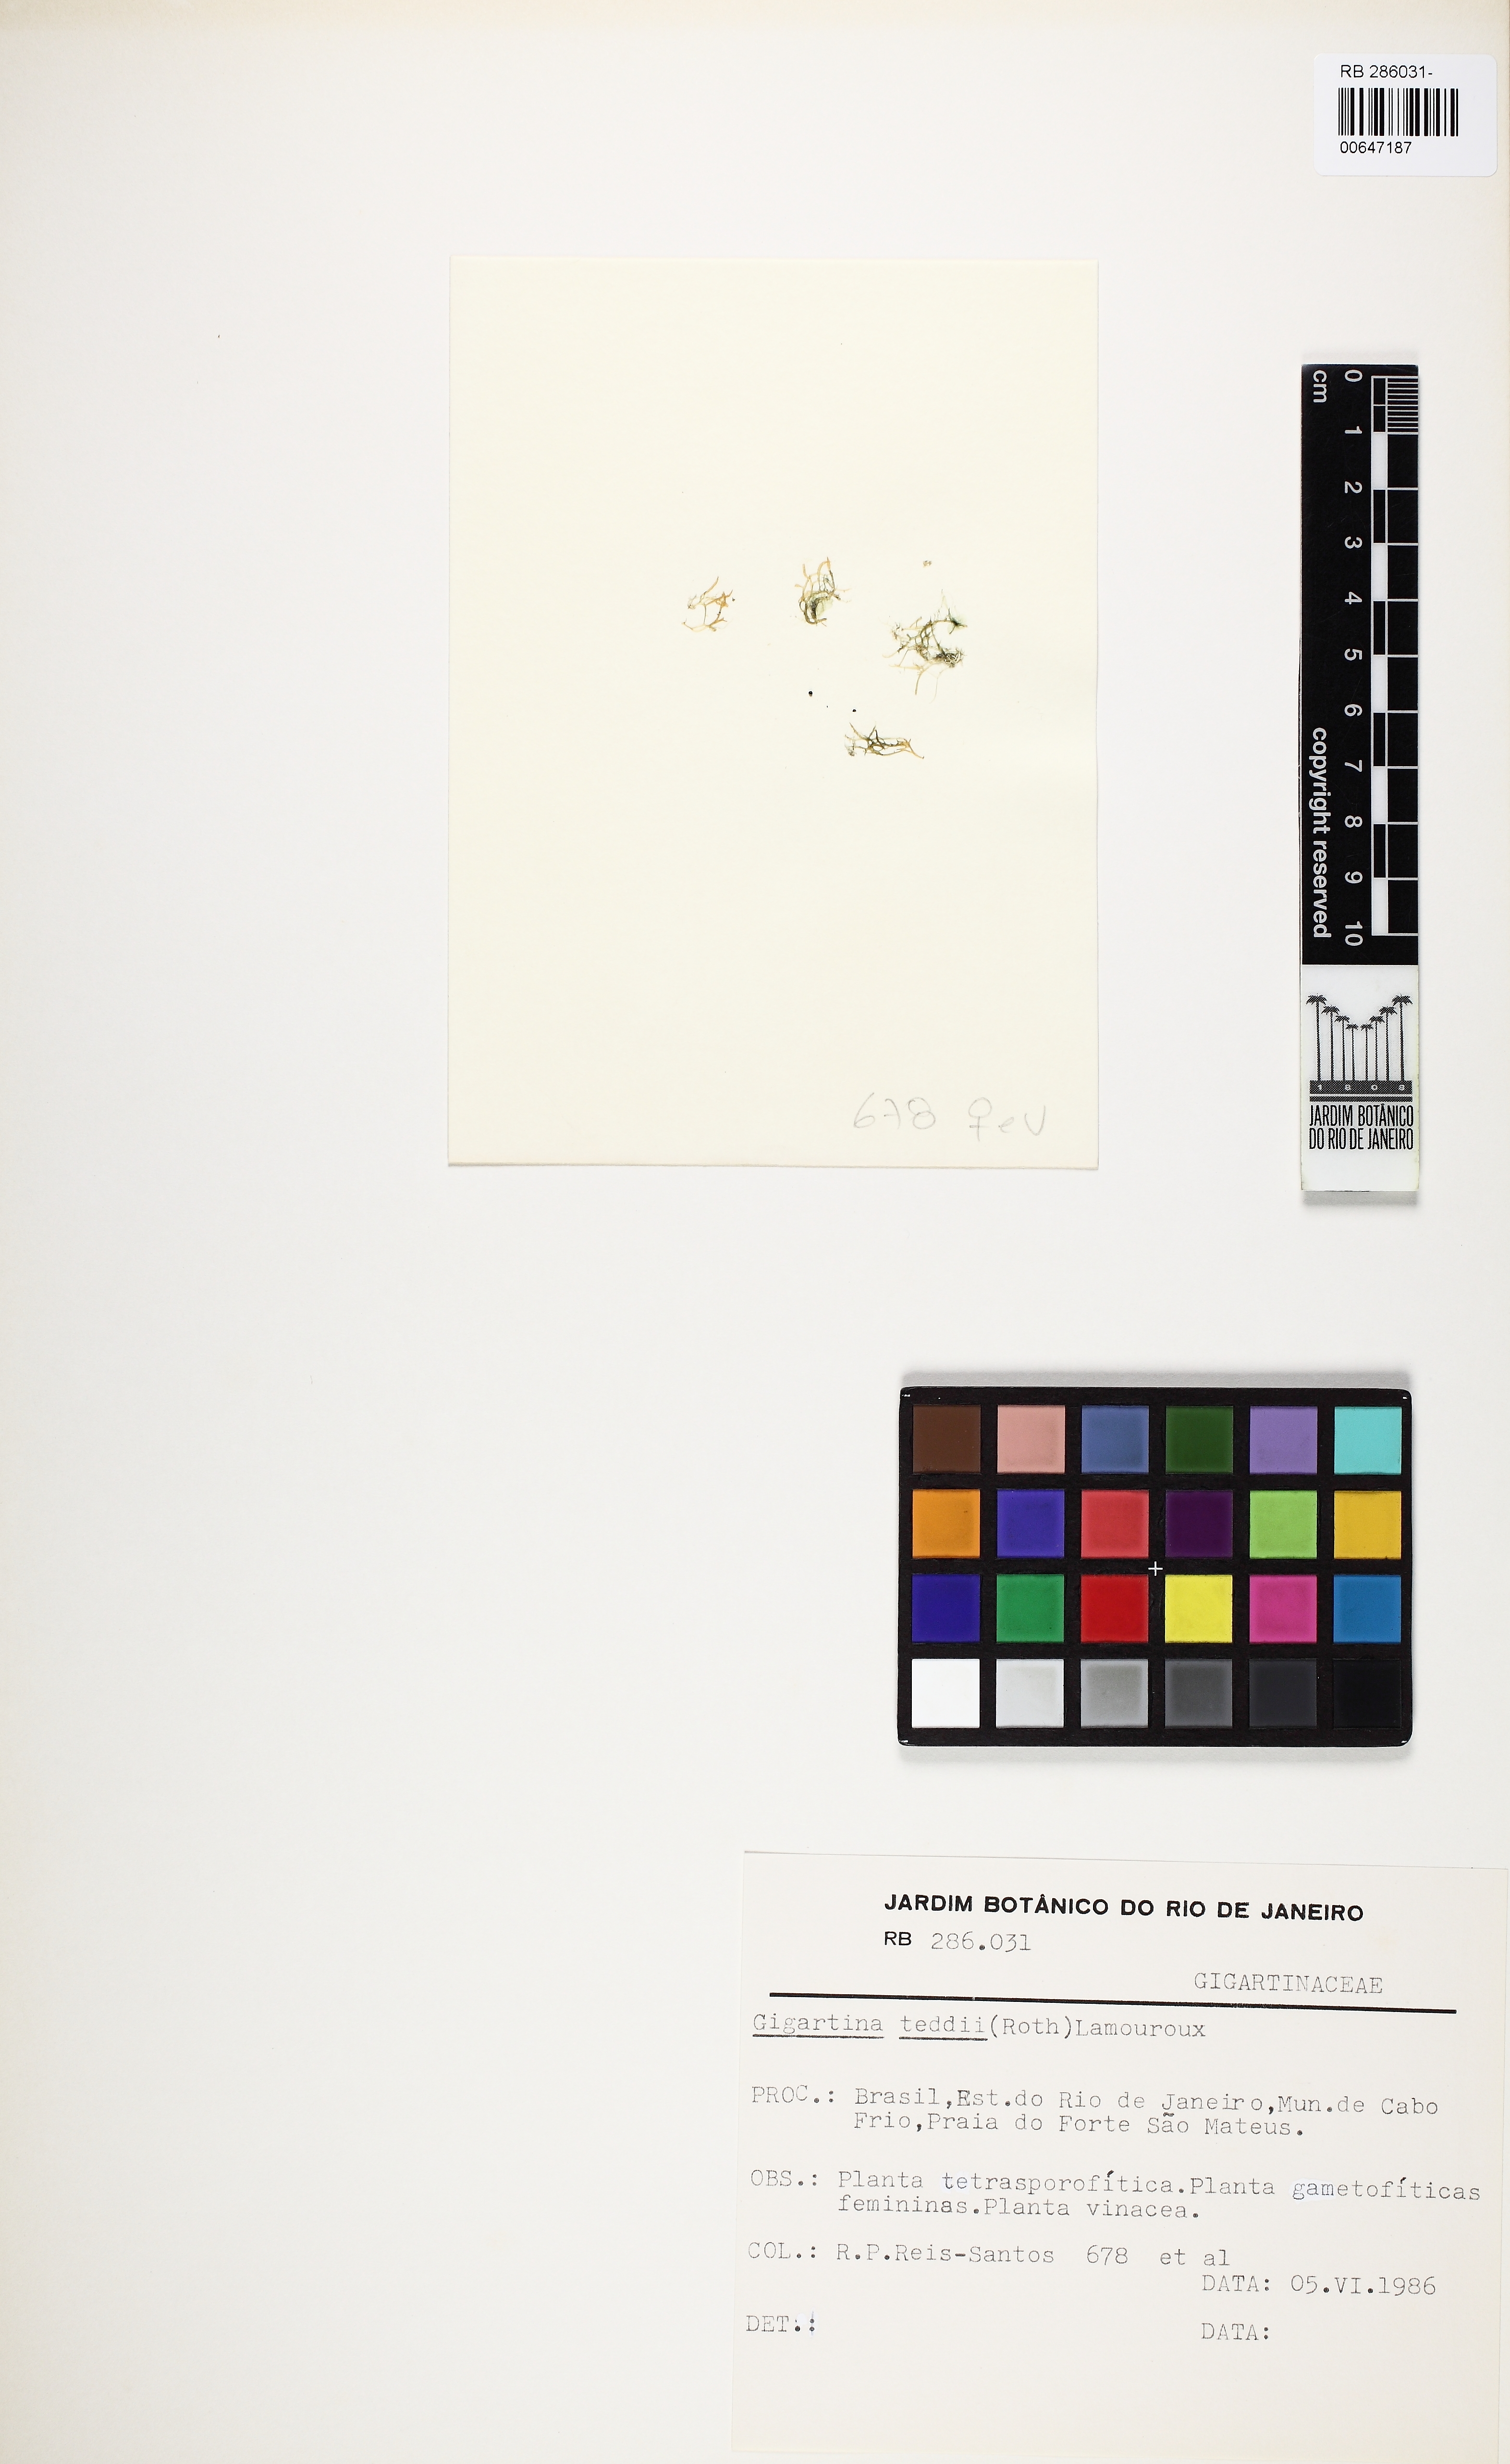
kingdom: Plantae
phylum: Rhodophyta
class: Florideophyceae
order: Gigartinales
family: Gigartinaceae
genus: Chondracanthus
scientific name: Chondracanthus teedei
